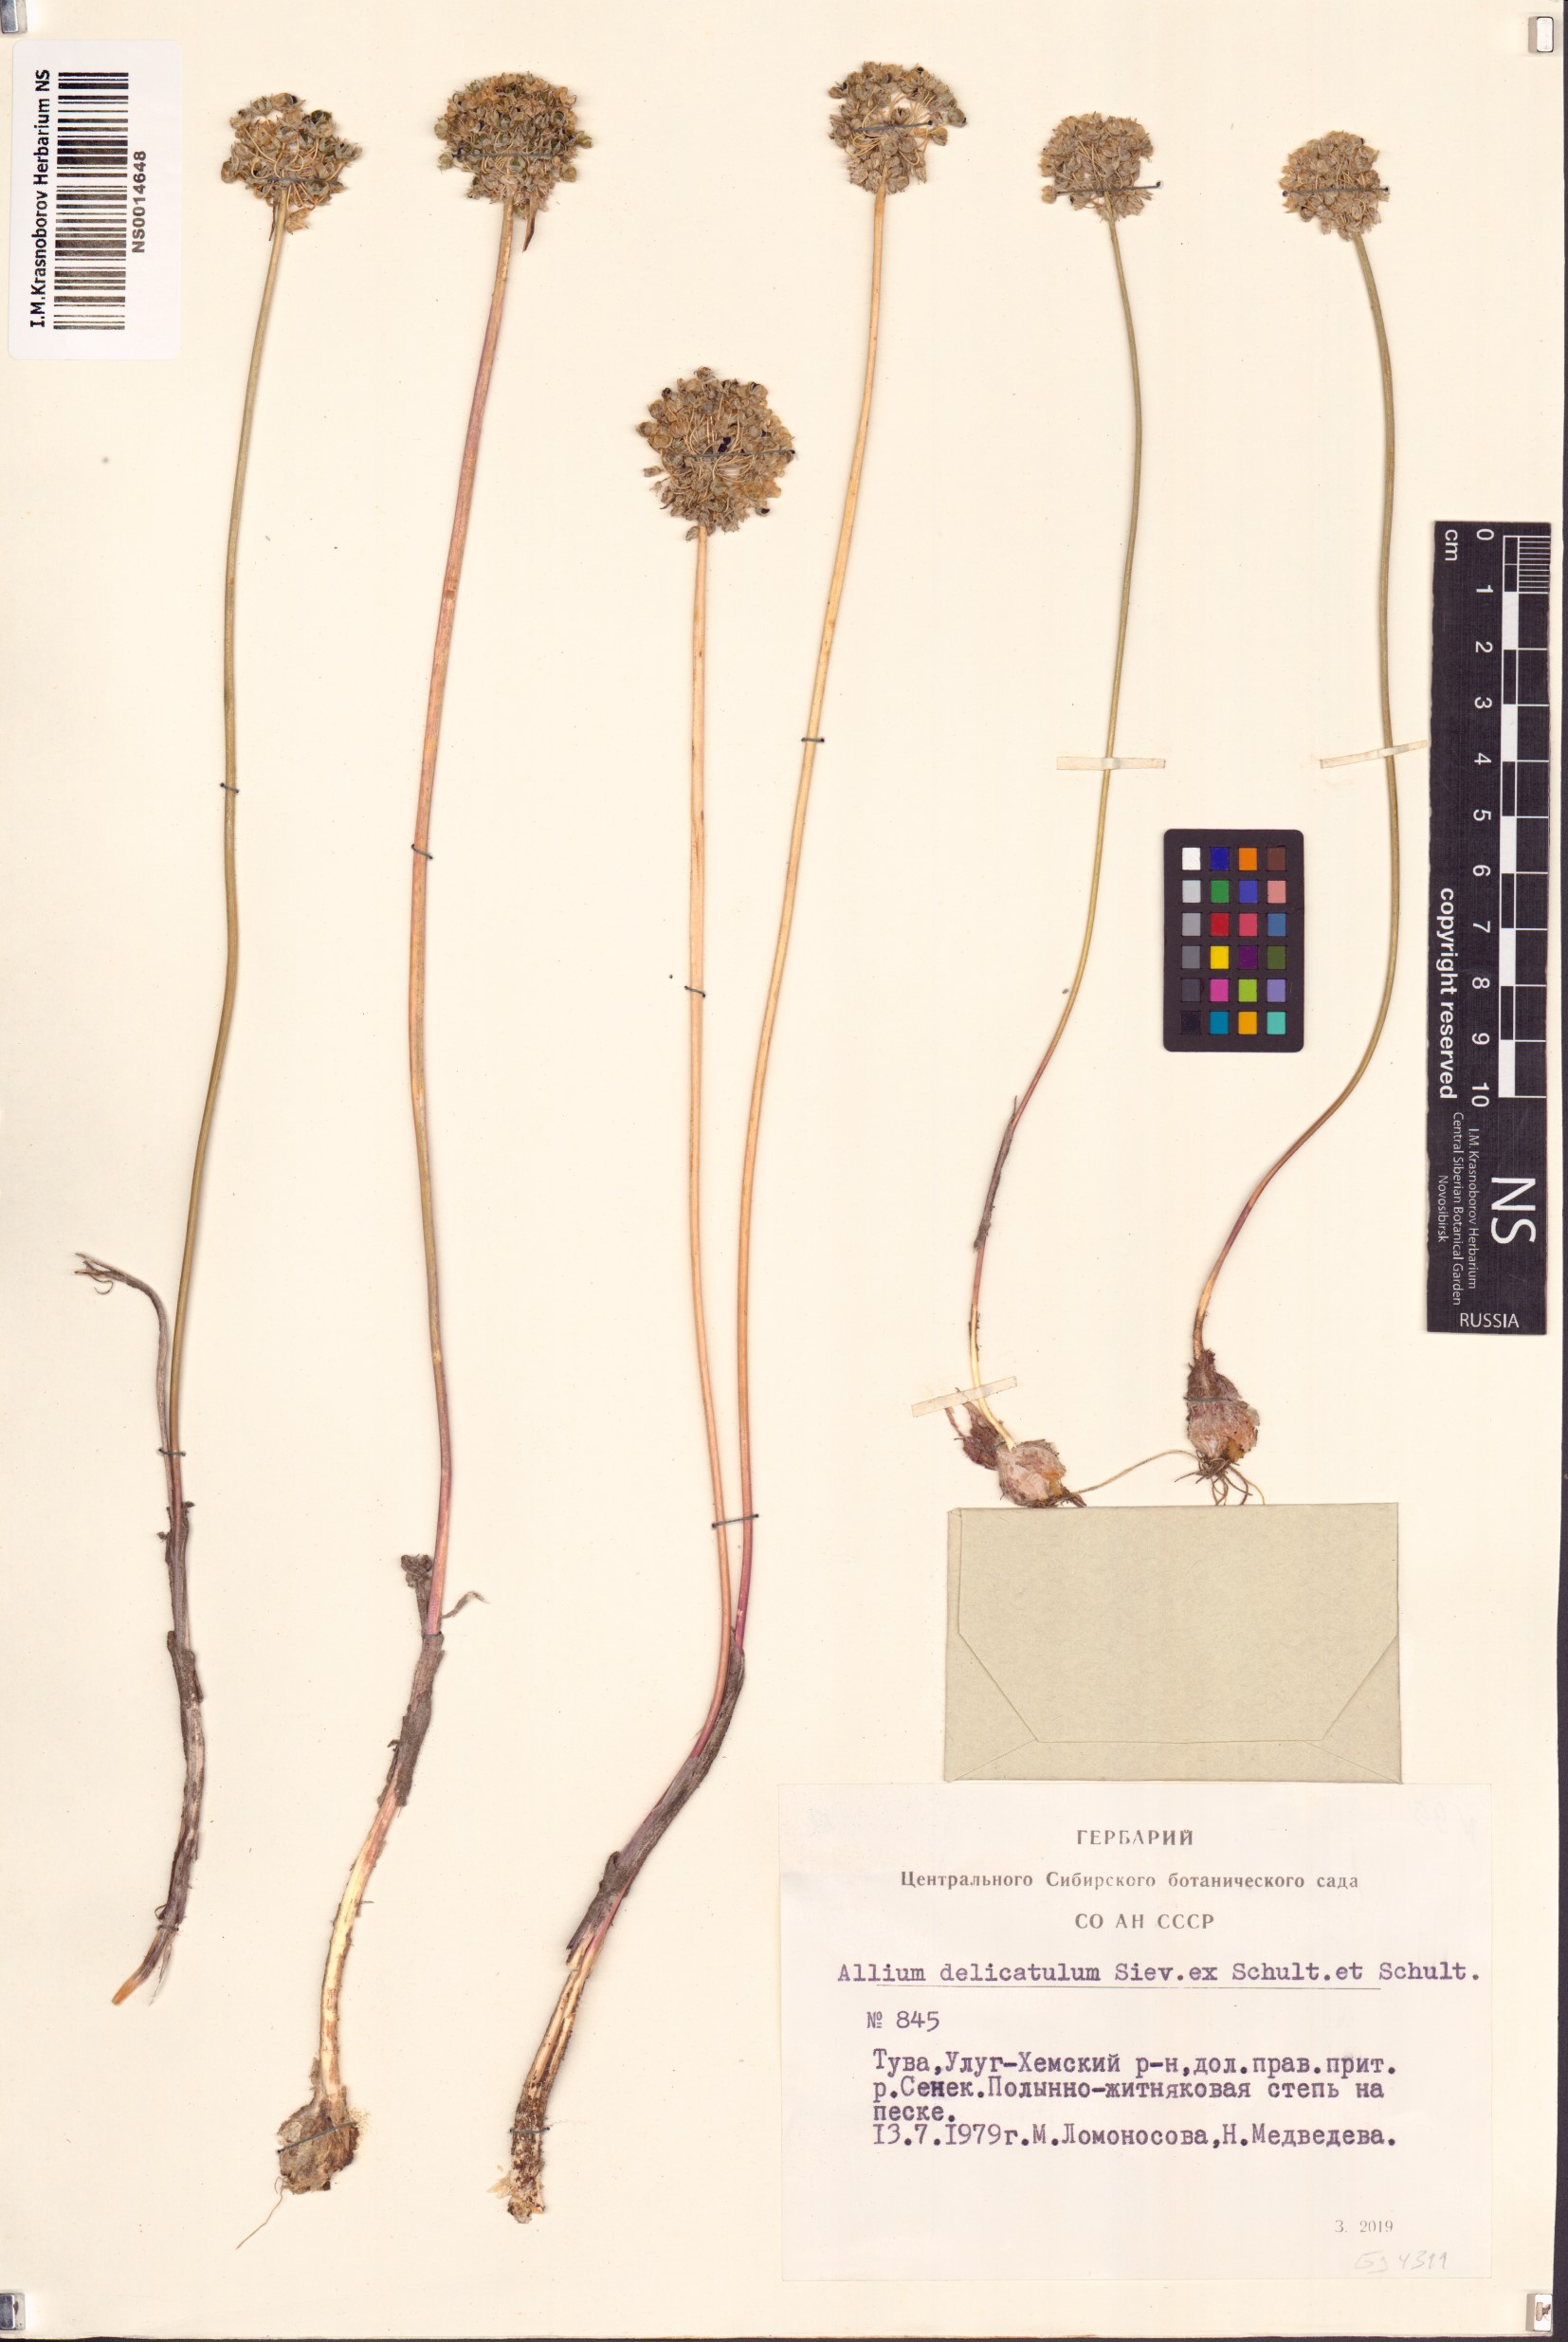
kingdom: Plantae
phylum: Tracheophyta
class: Liliopsida
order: Asparagales
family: Amaryllidaceae
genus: Allium
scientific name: Allium delicatulum
